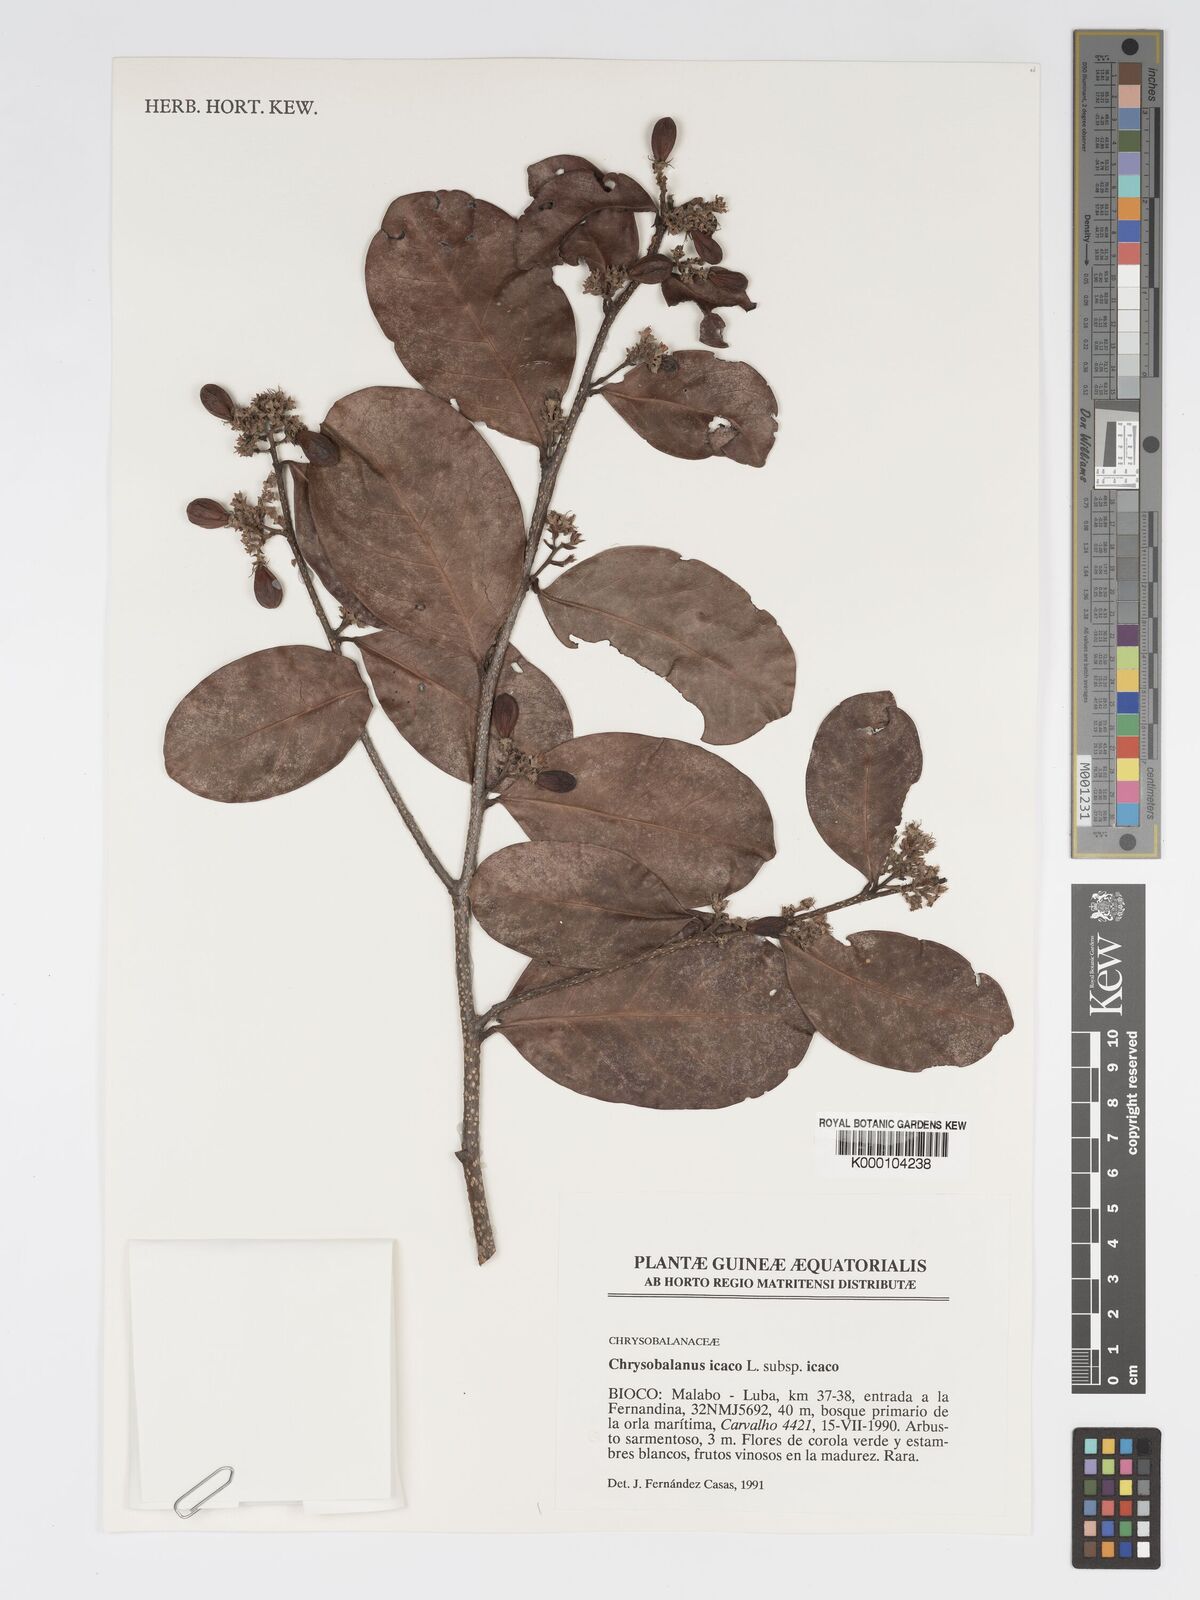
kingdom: Plantae
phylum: Tracheophyta
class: Magnoliopsida
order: Malpighiales
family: Chrysobalanaceae
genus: Chrysobalanus
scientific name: Chrysobalanus icaco
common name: Coco plum
